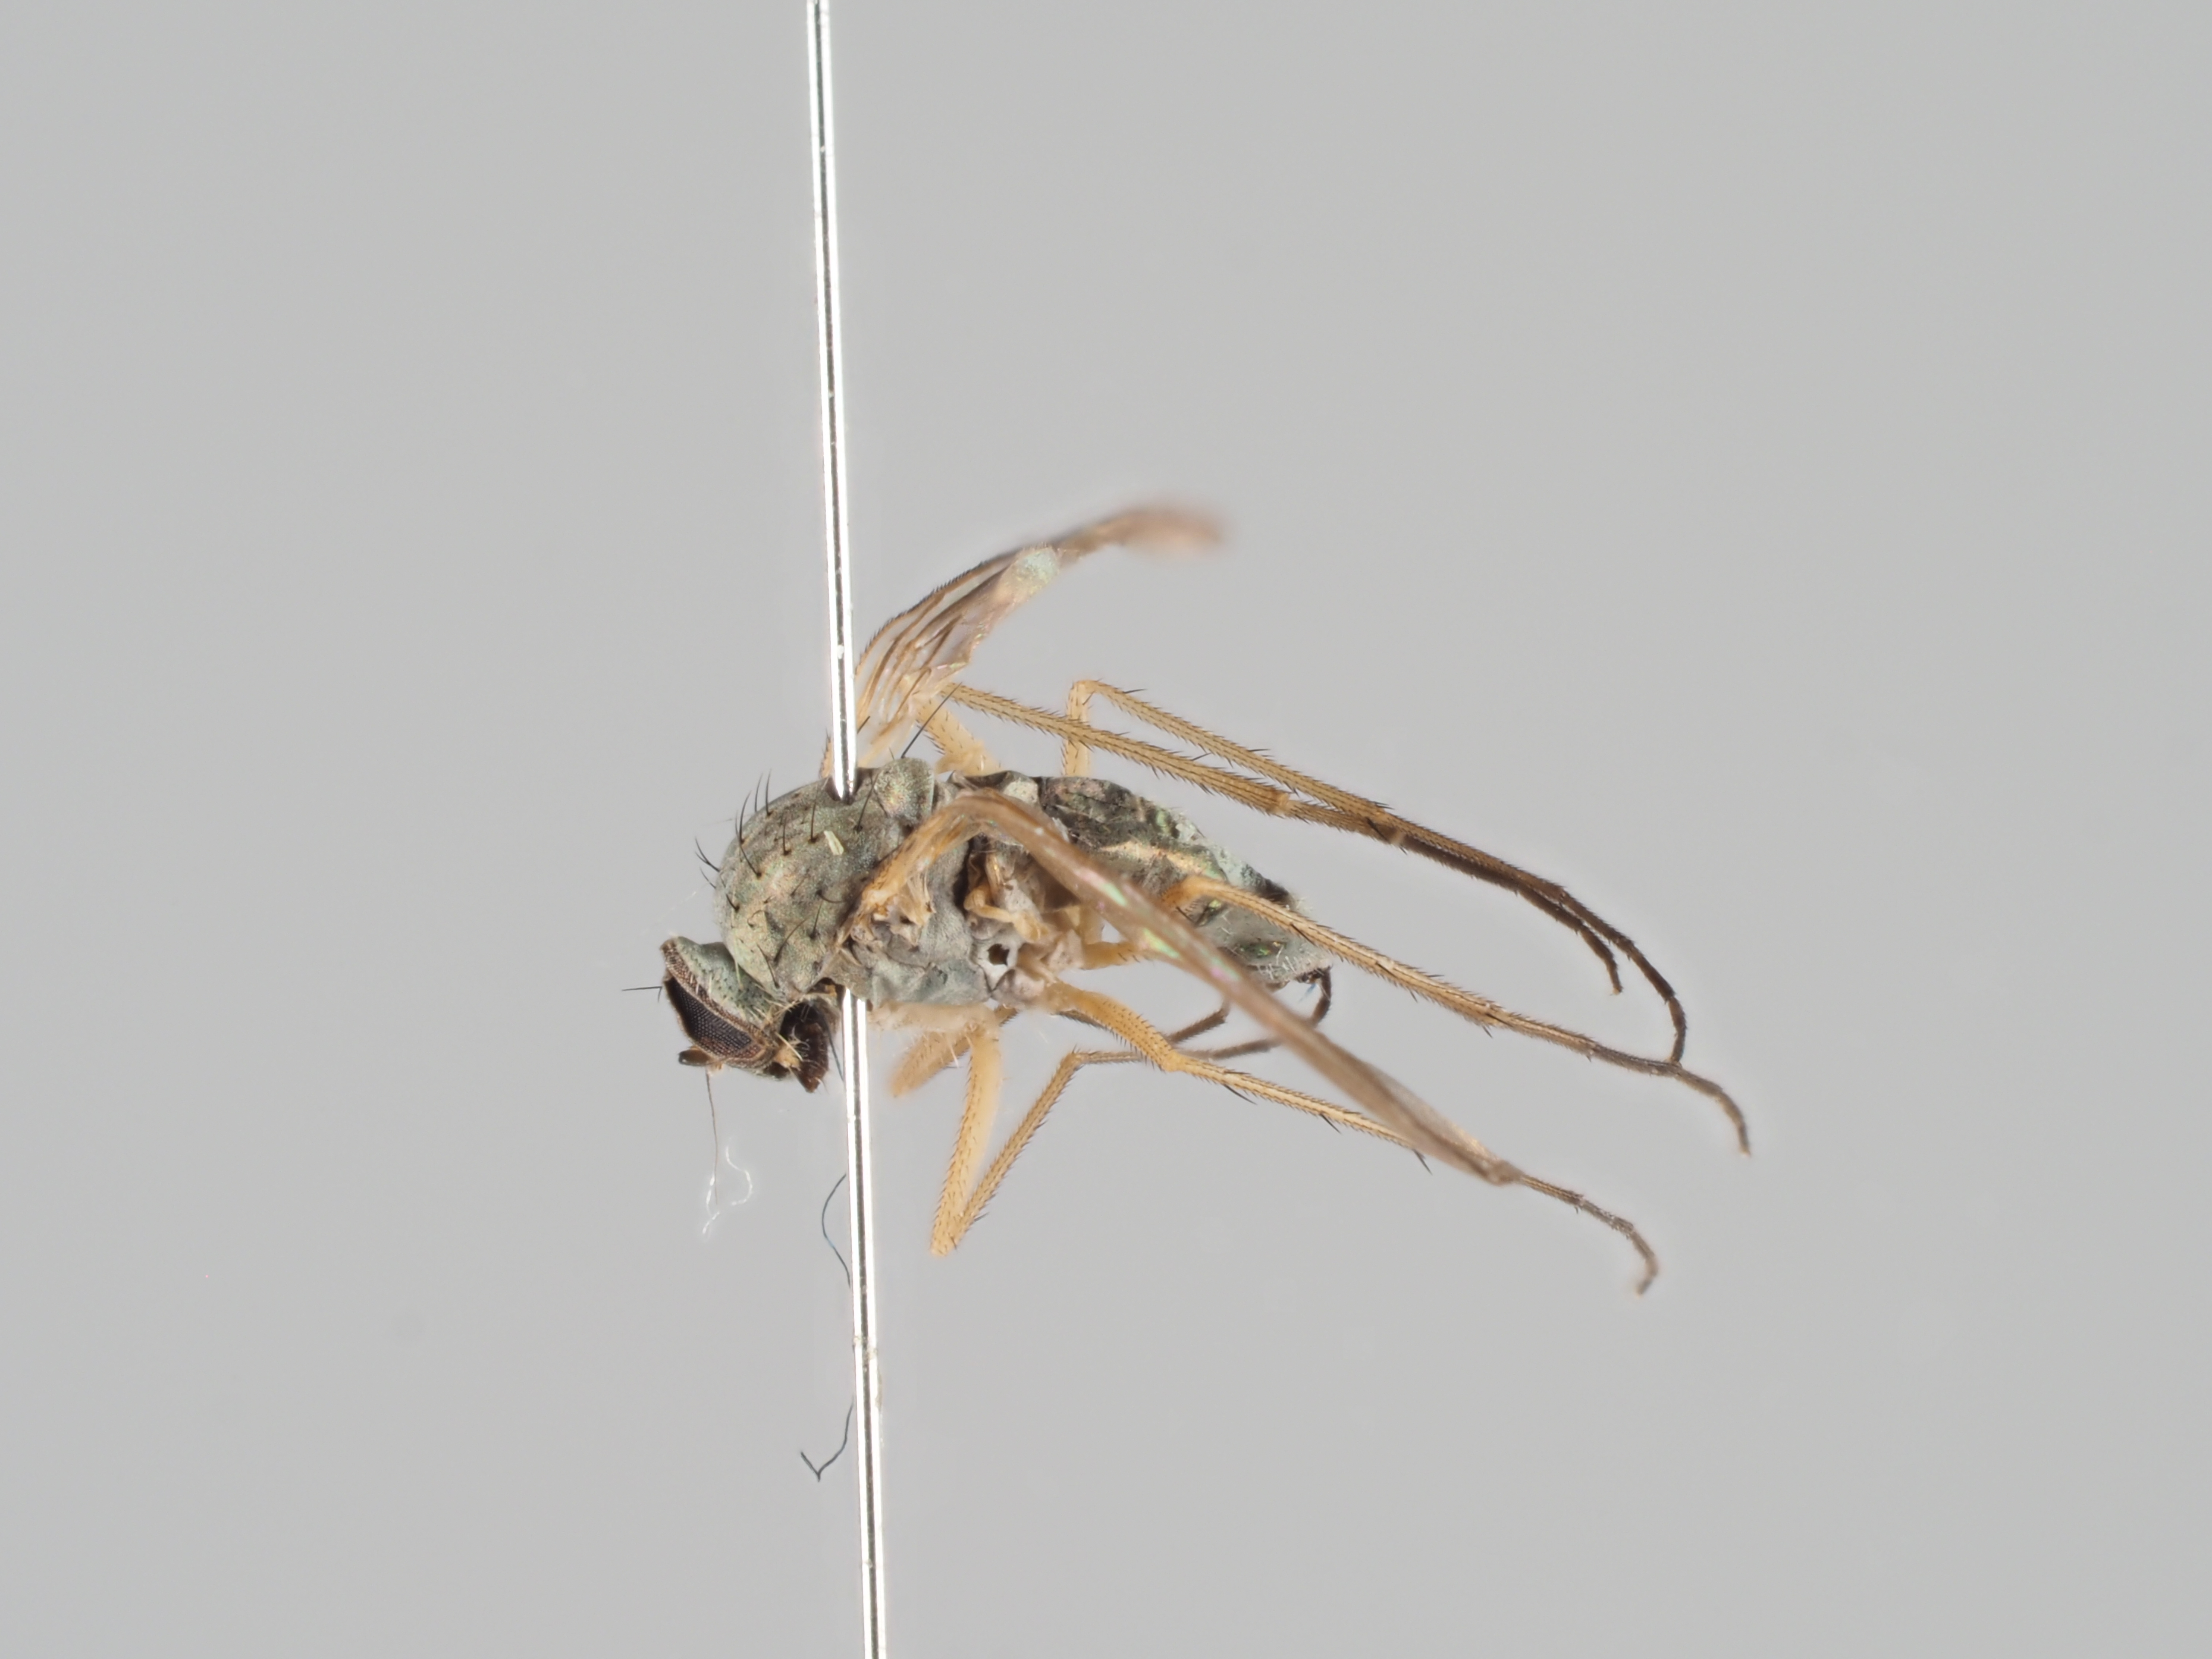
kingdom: Animalia
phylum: Arthropoda
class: Insecta
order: Diptera
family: Dolichopodidae
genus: Thrypticus
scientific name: Thrypticus zonatulus
